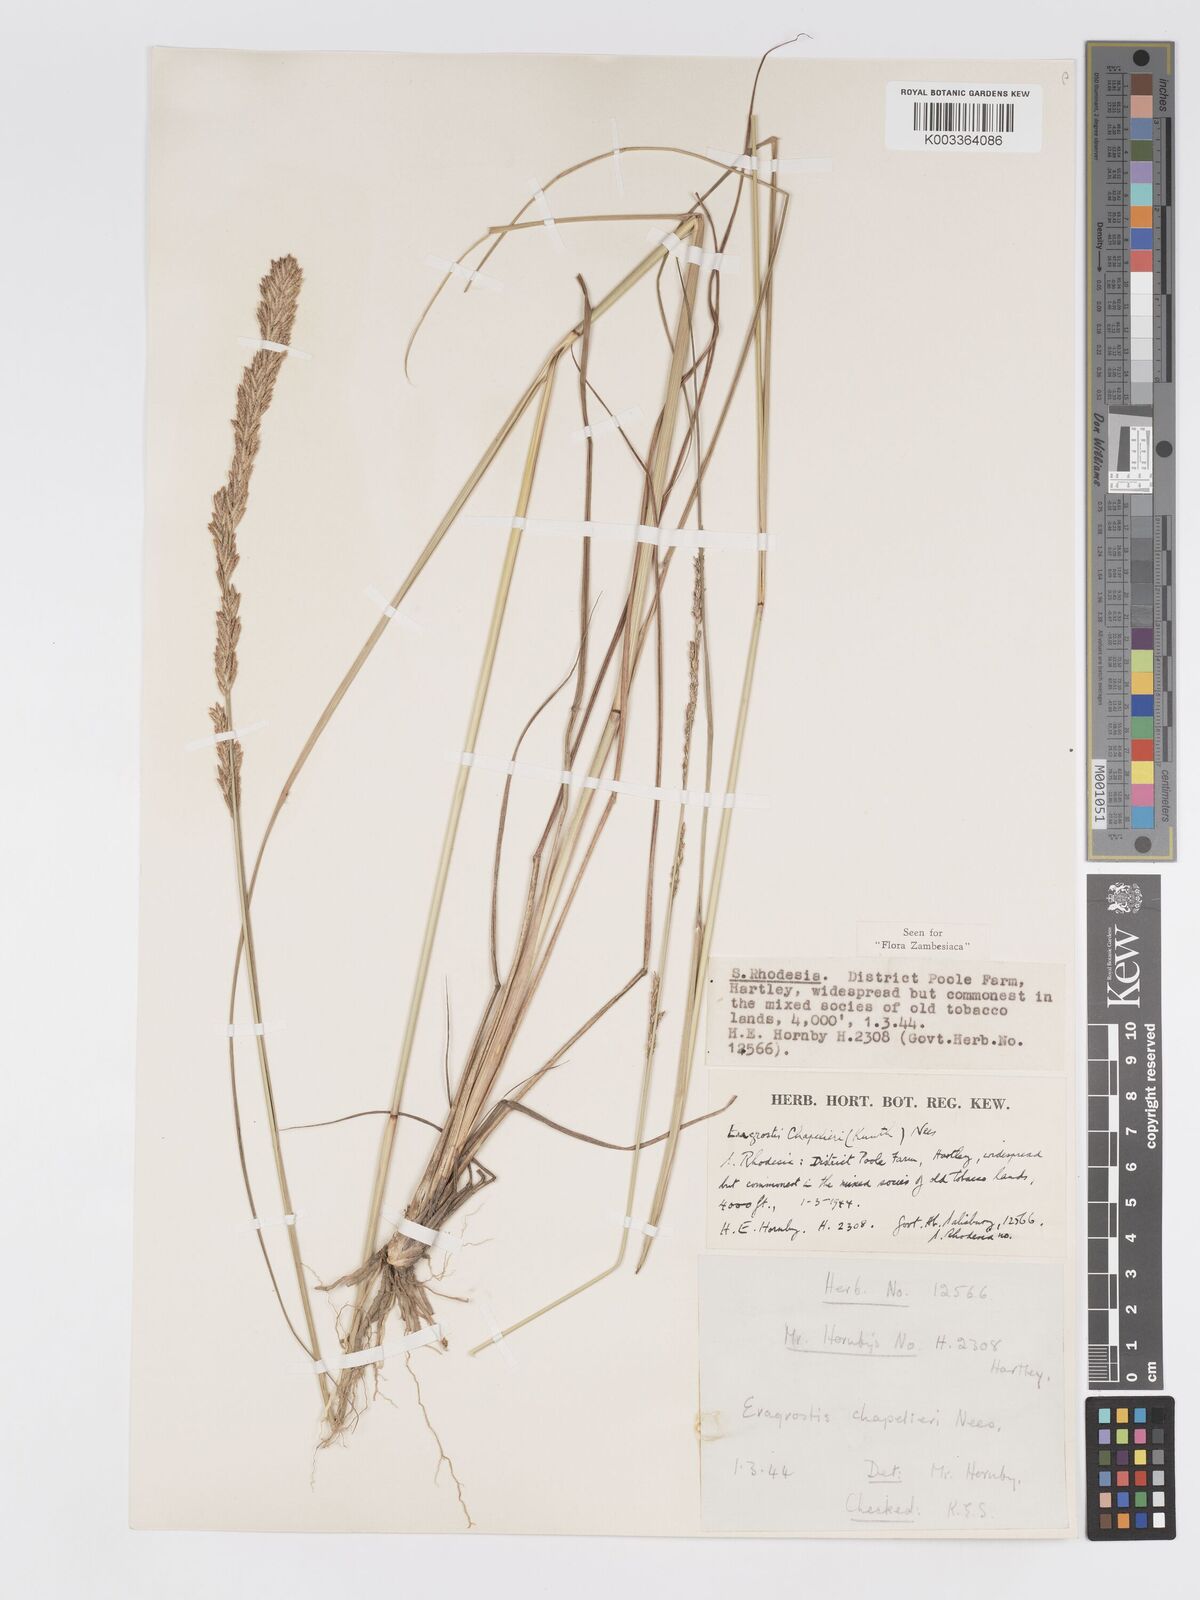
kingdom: Plantae
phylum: Tracheophyta
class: Liliopsida
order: Poales
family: Poaceae
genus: Eragrostis
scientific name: Eragrostis chapelieri
